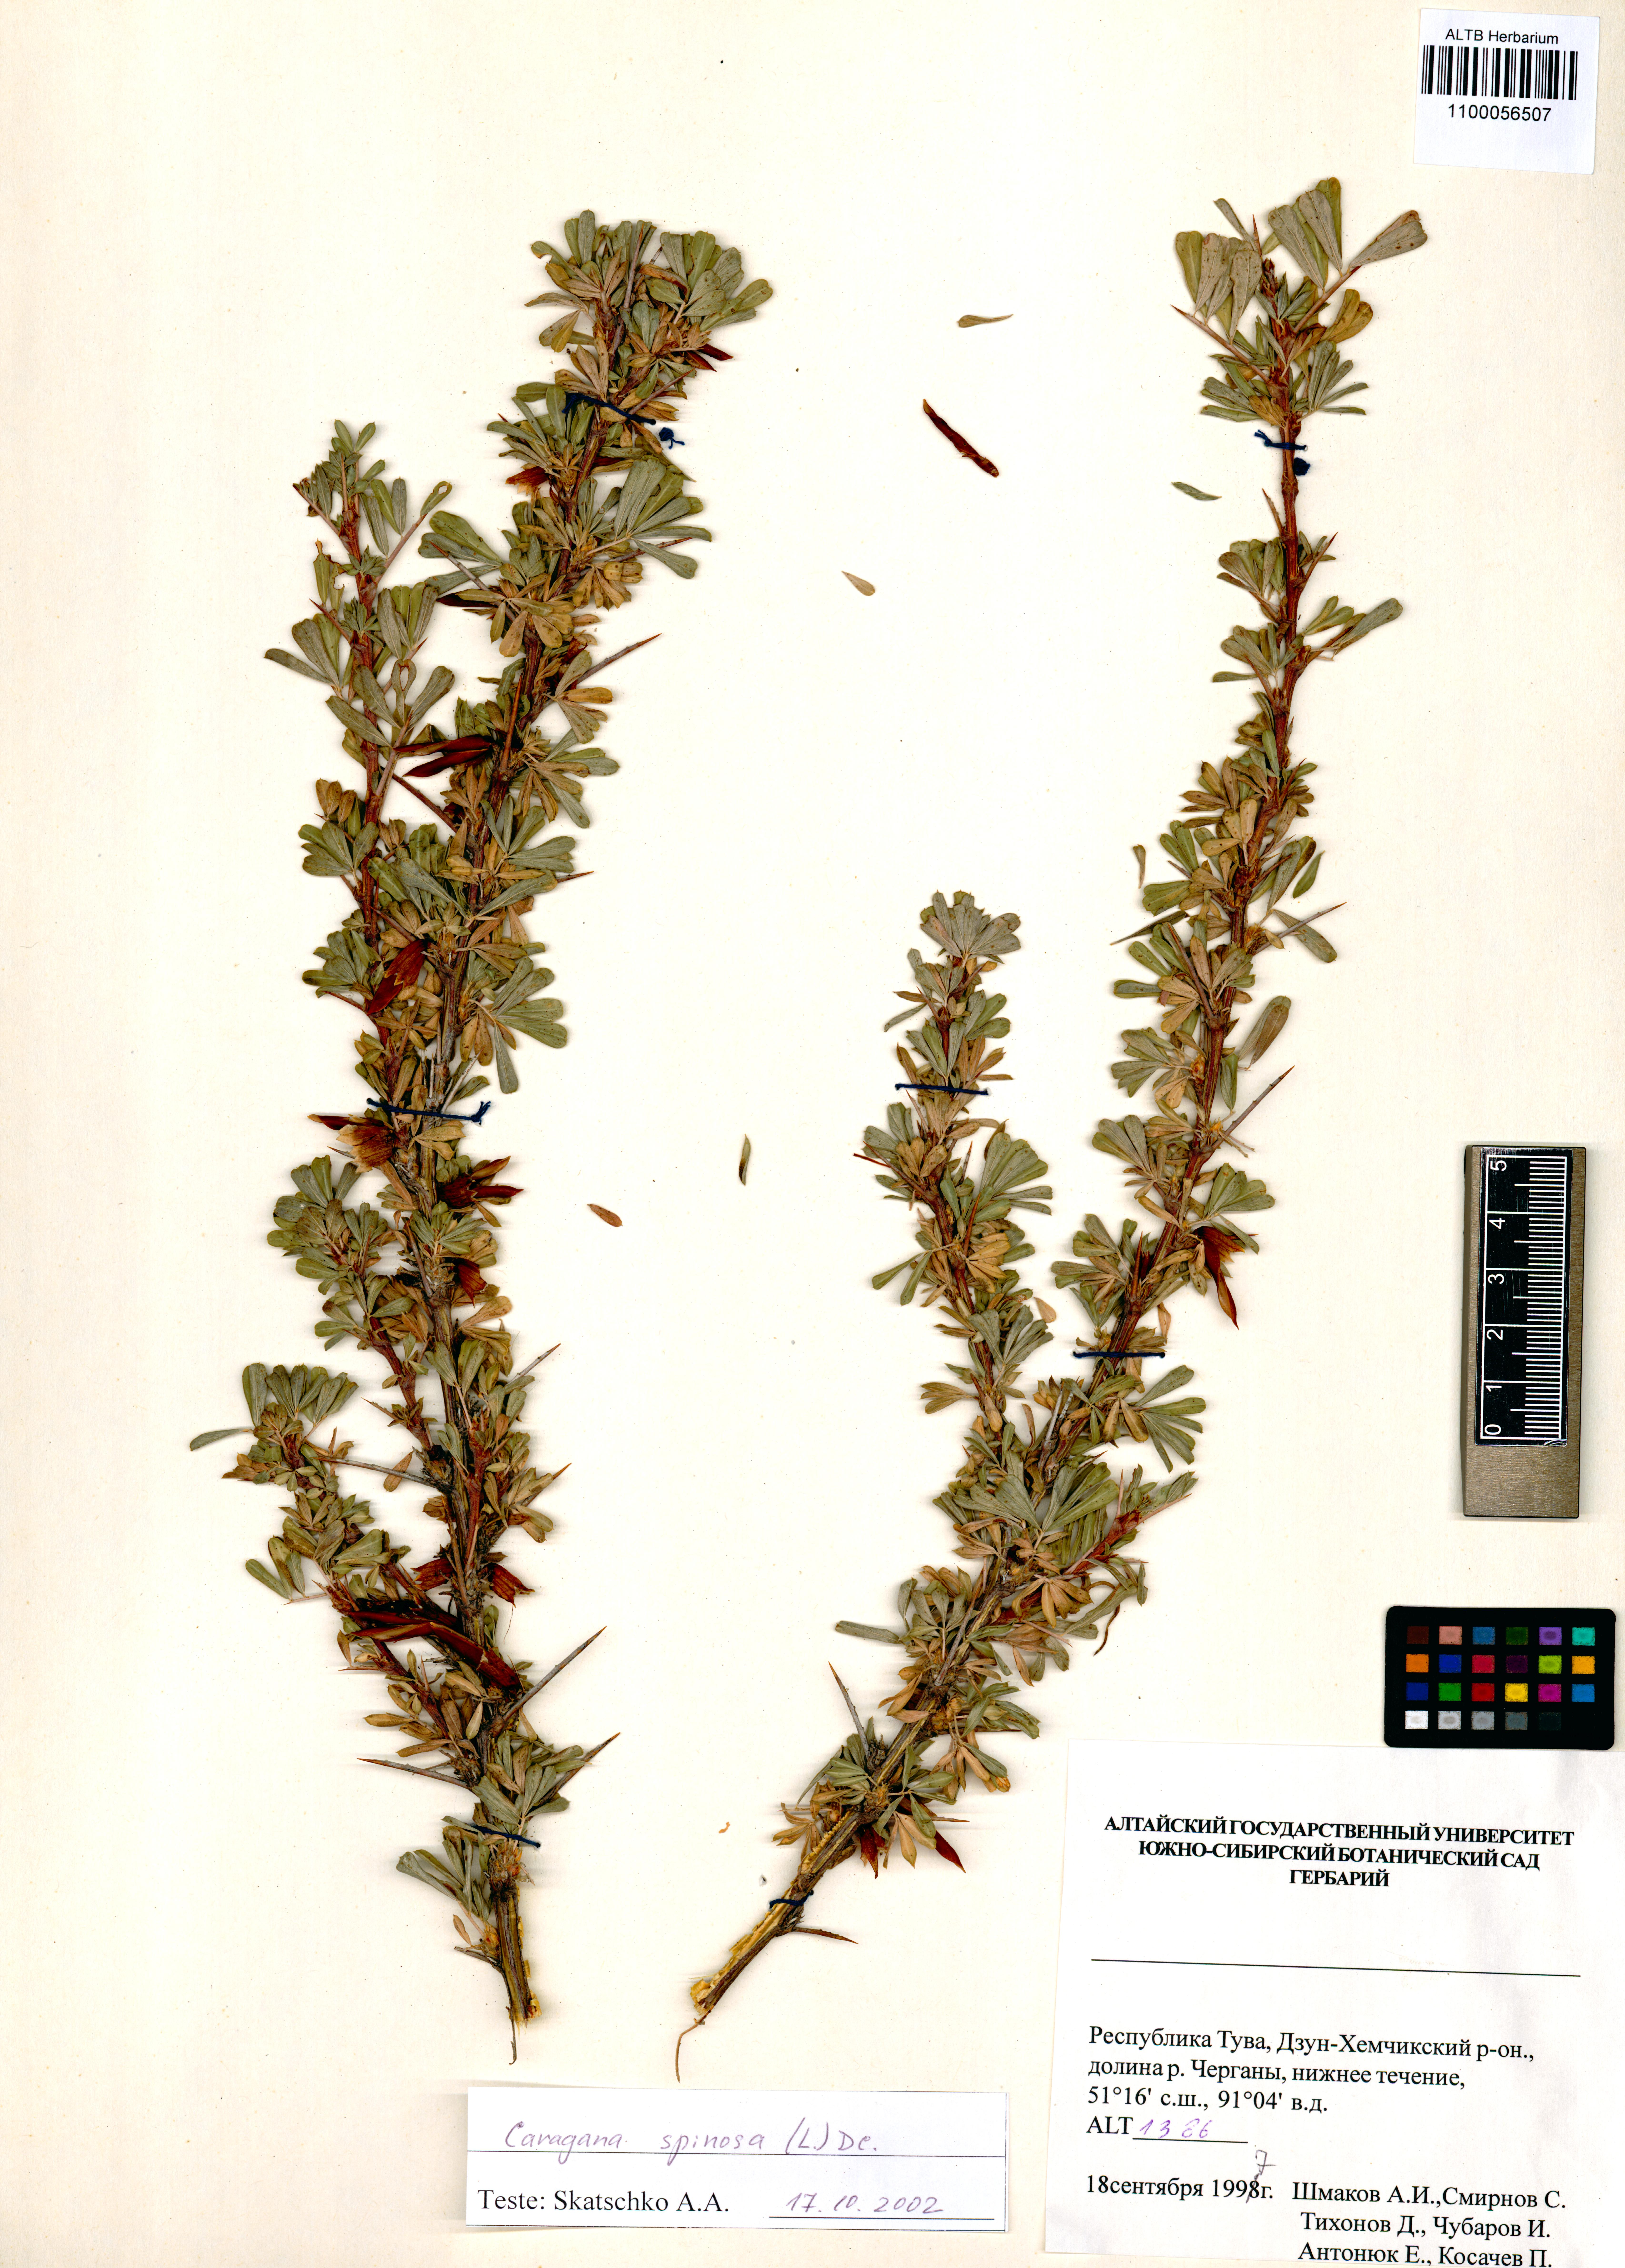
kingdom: Plantae
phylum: Tracheophyta
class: Magnoliopsida
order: Fabales
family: Fabaceae
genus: Caragana
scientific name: Caragana spinosa
